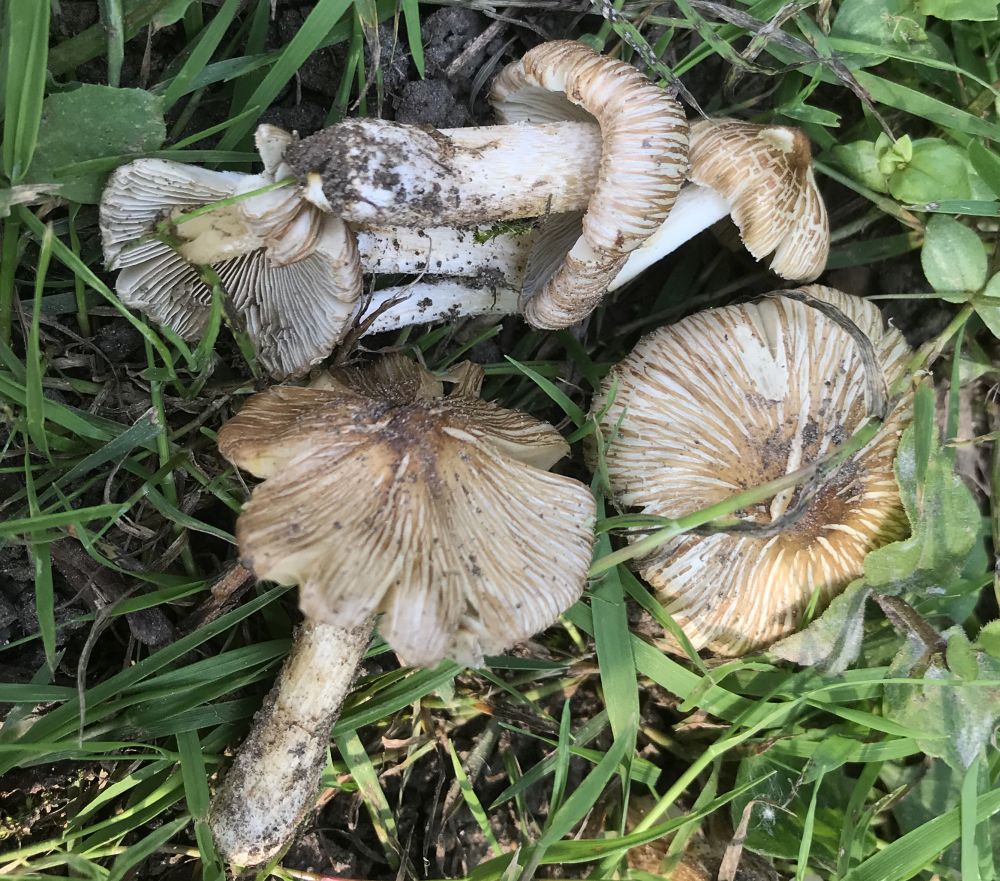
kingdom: Fungi
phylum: Basidiomycota
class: Agaricomycetes
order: Agaricales
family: Inocybaceae
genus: Inocybe
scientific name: Inocybe
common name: trævlhat
